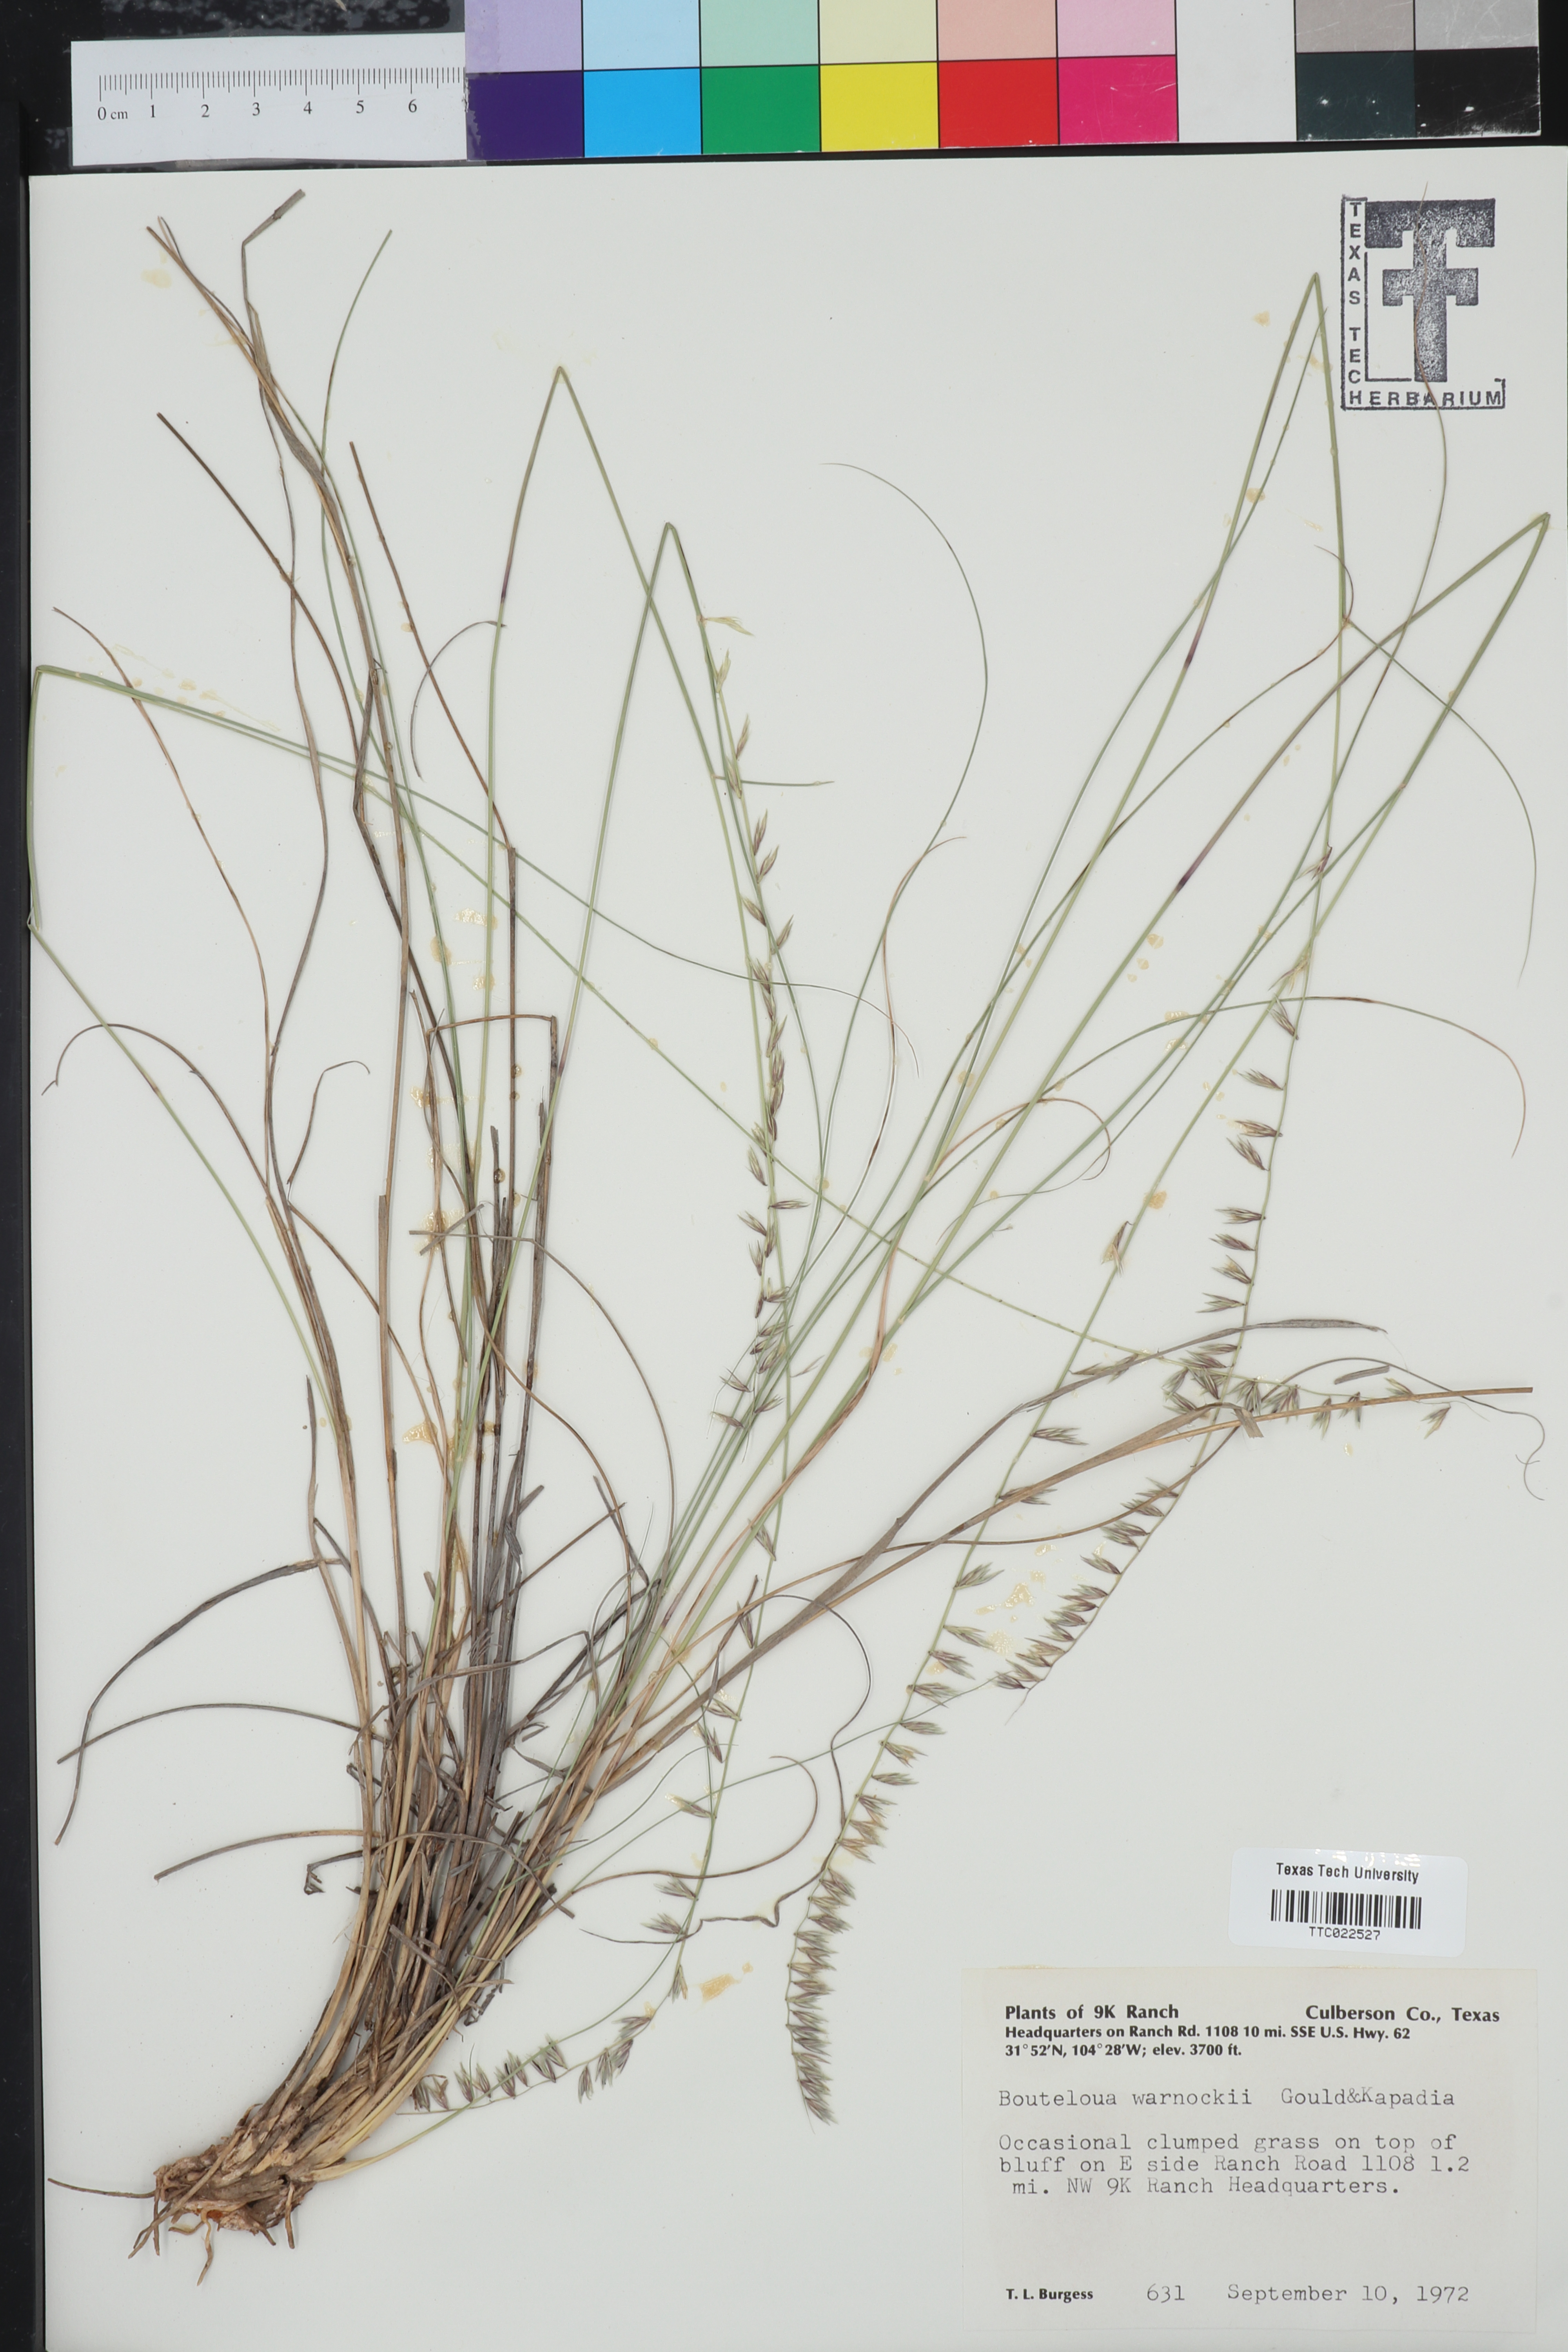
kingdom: Plantae
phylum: Tracheophyta
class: Liliopsida
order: Poales
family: Poaceae
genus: Bouteloua
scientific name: Bouteloua warnockii
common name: Warnock's grama
